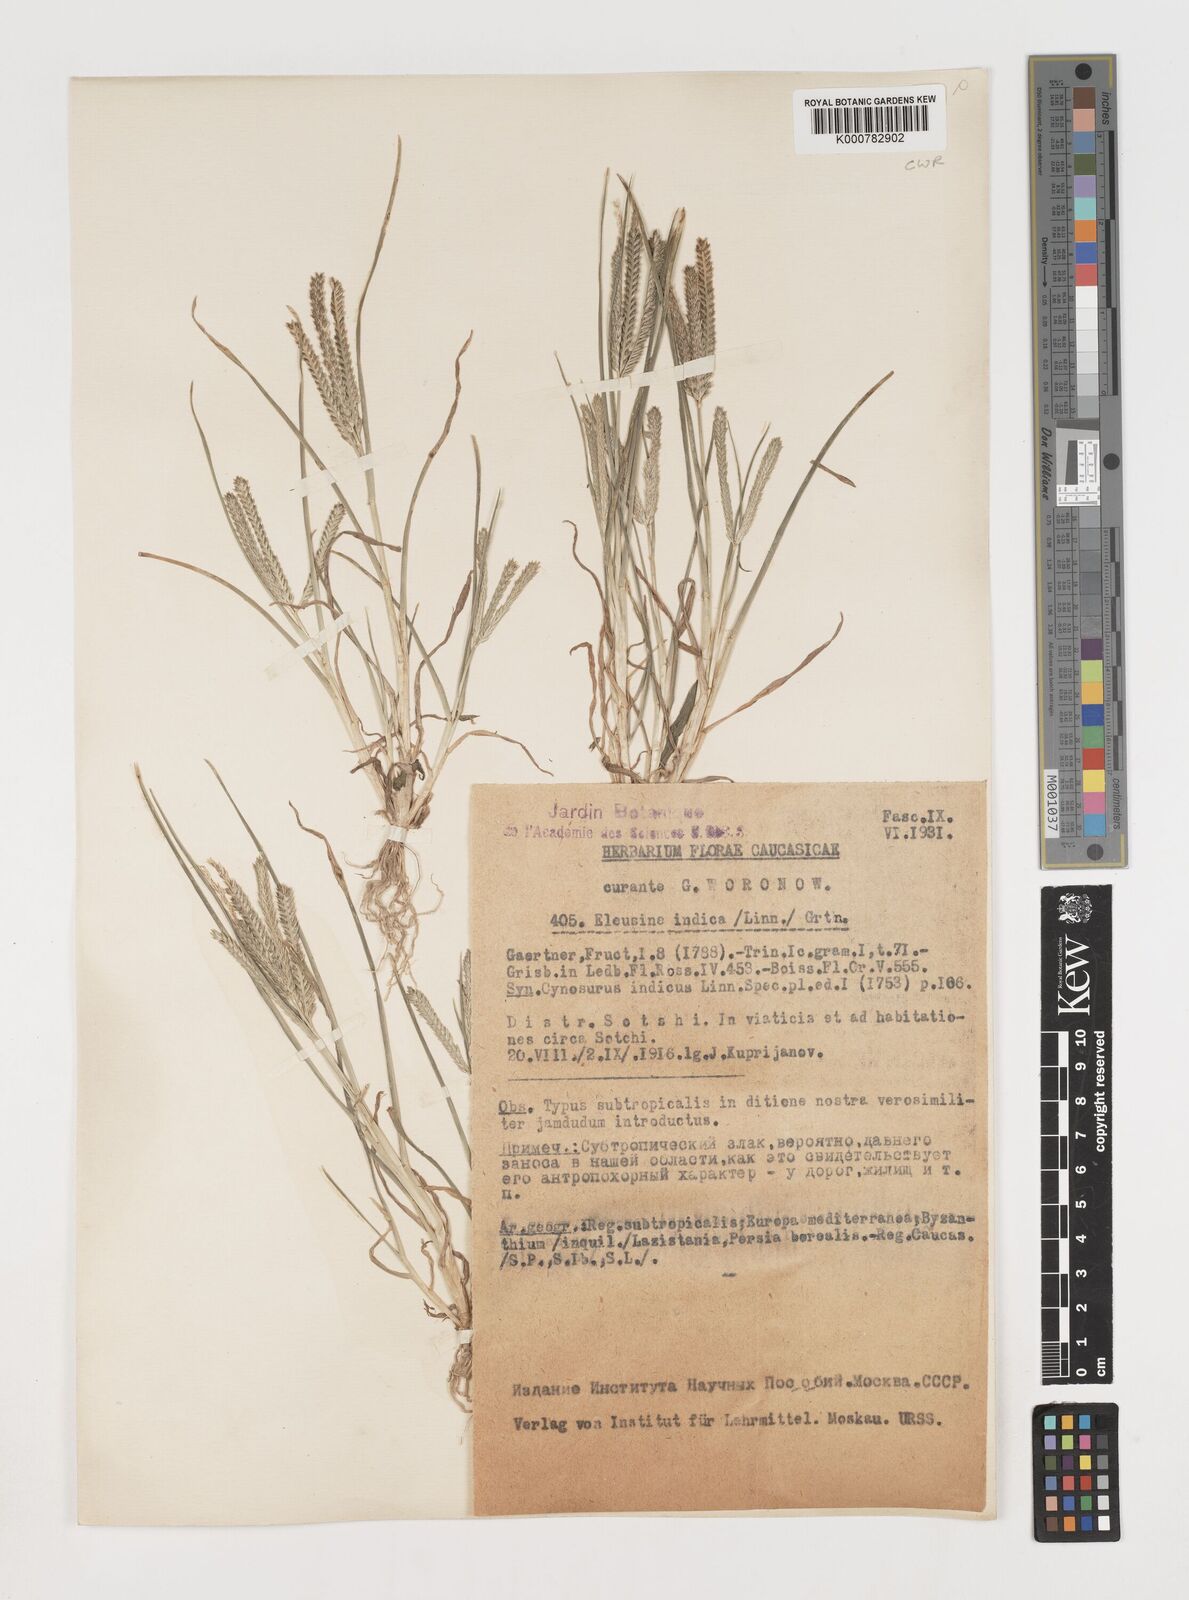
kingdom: Plantae
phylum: Tracheophyta
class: Liliopsida
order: Poales
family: Poaceae
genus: Eleusine
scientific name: Eleusine indica
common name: Yard-grass
